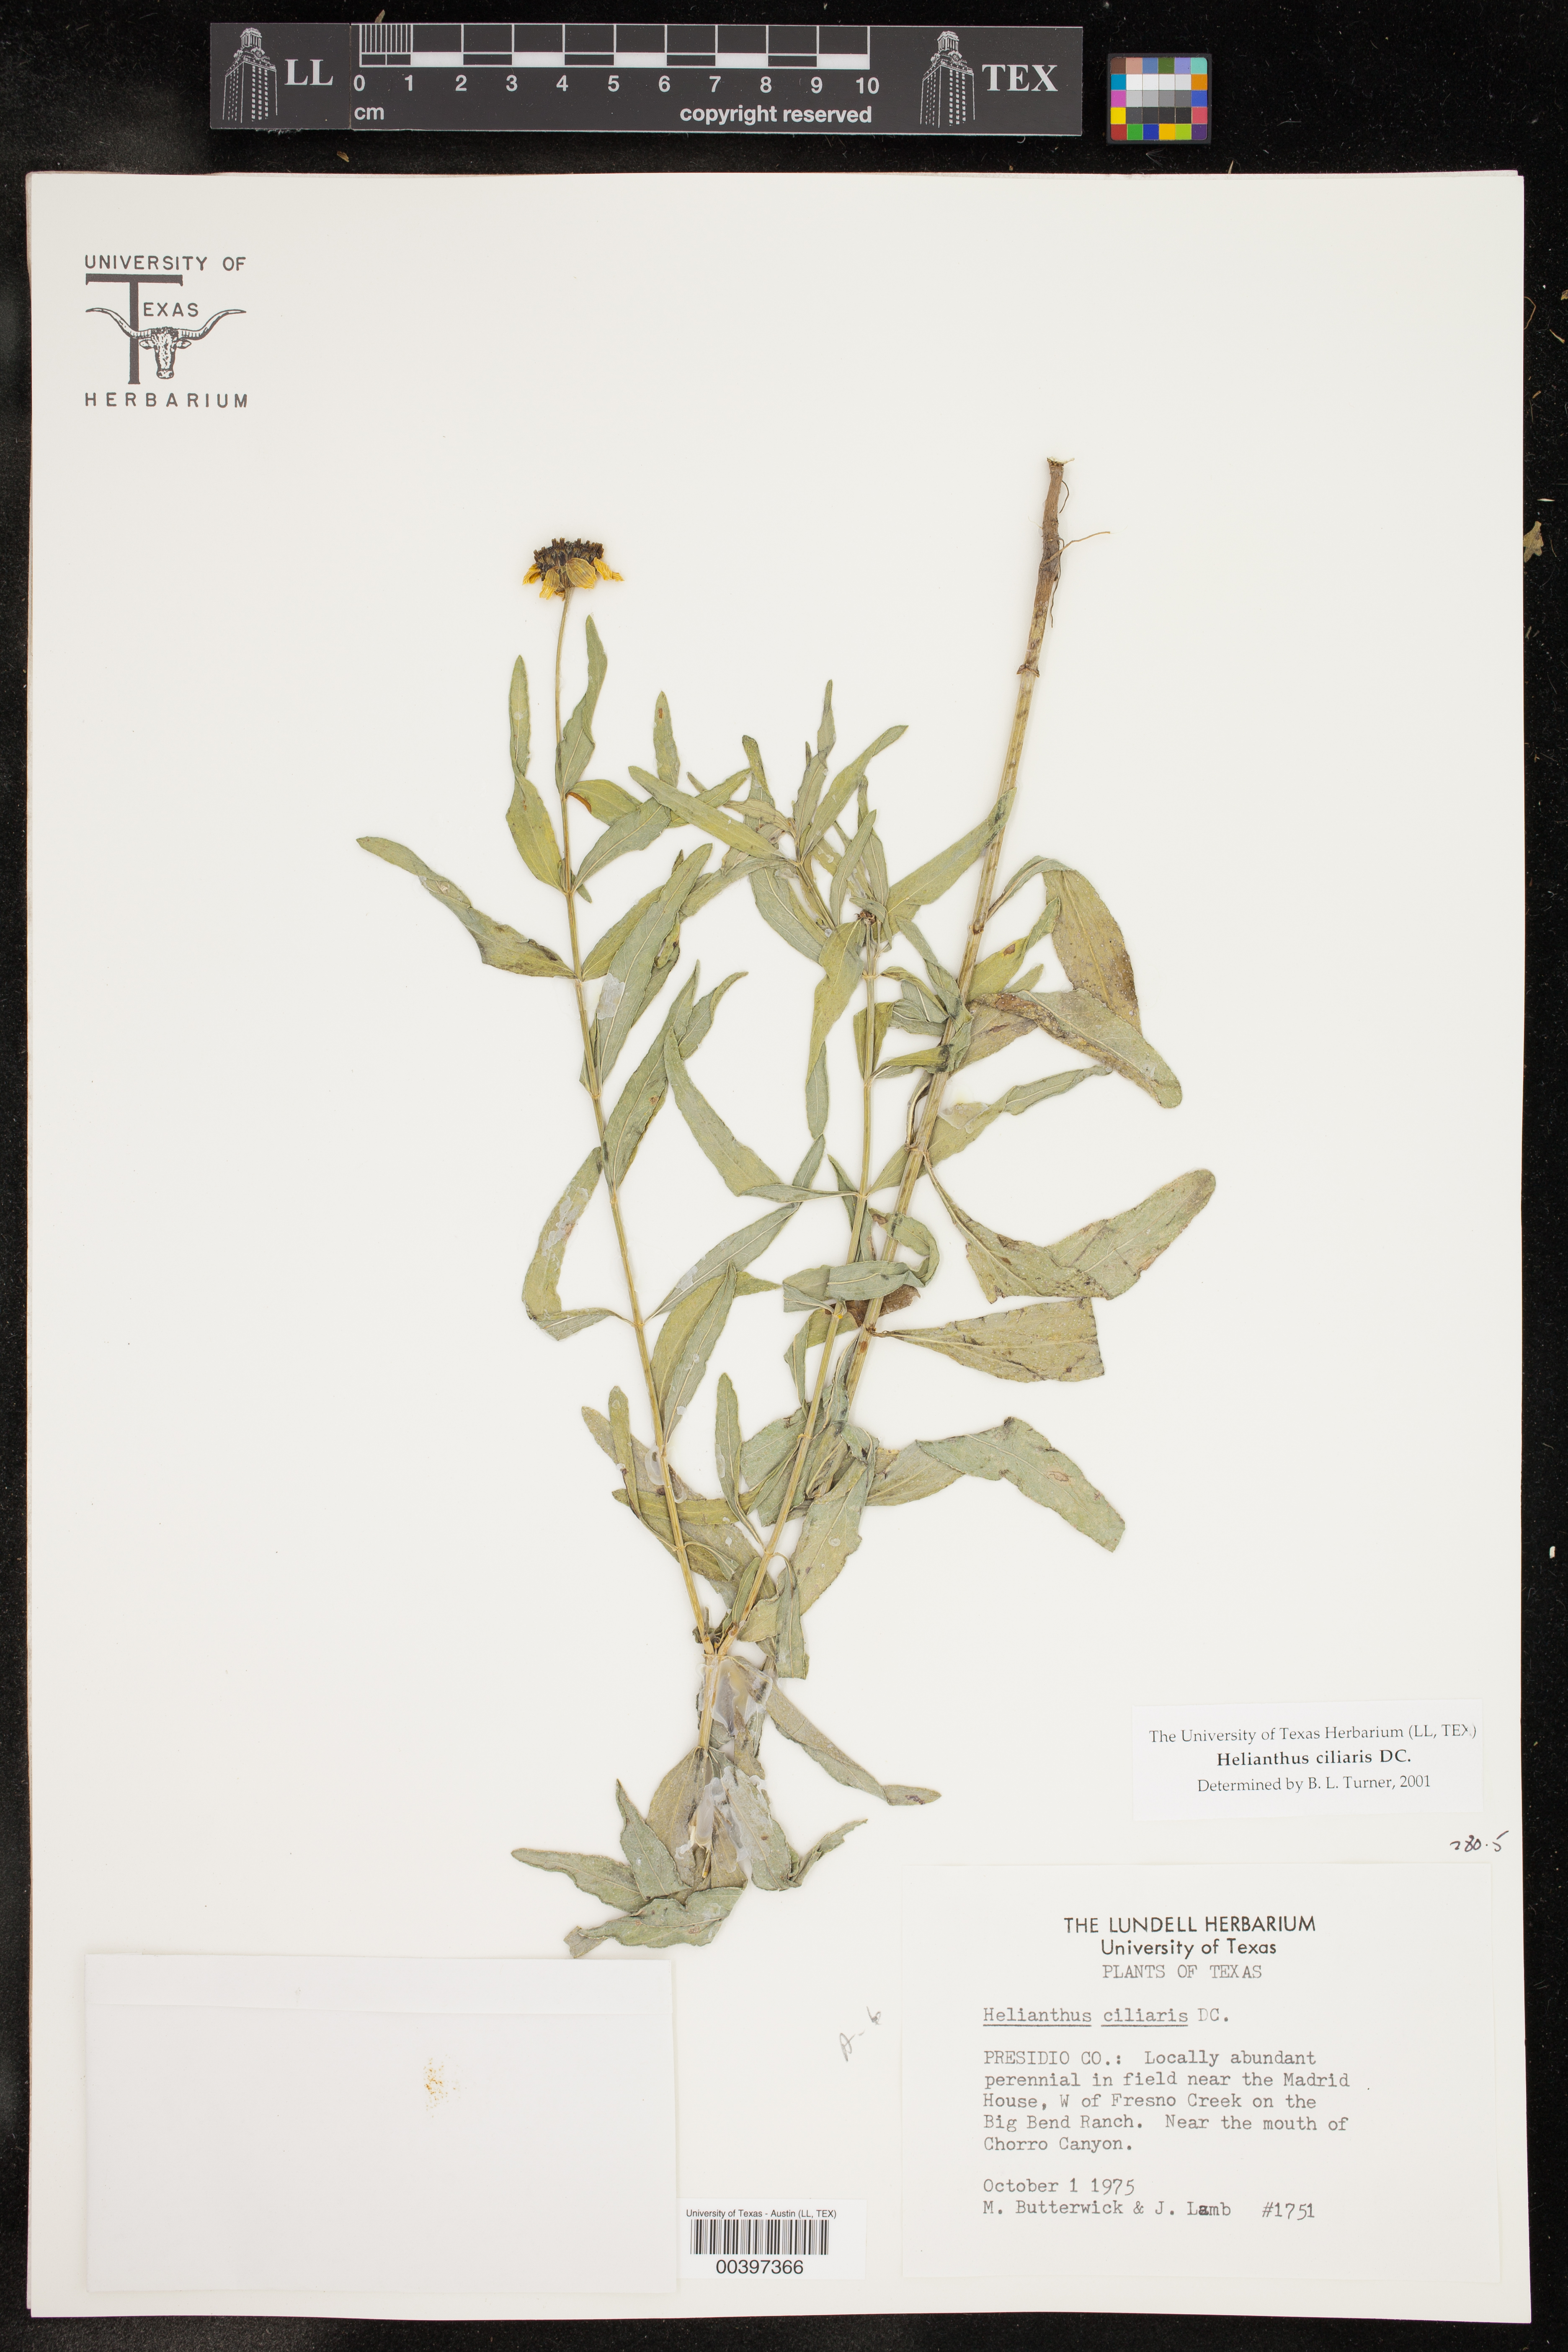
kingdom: Plantae
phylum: Tracheophyta
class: Magnoliopsida
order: Asterales
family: Asteraceae
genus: Helianthus
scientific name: Helianthus ciliaris
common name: Texas blueweed
